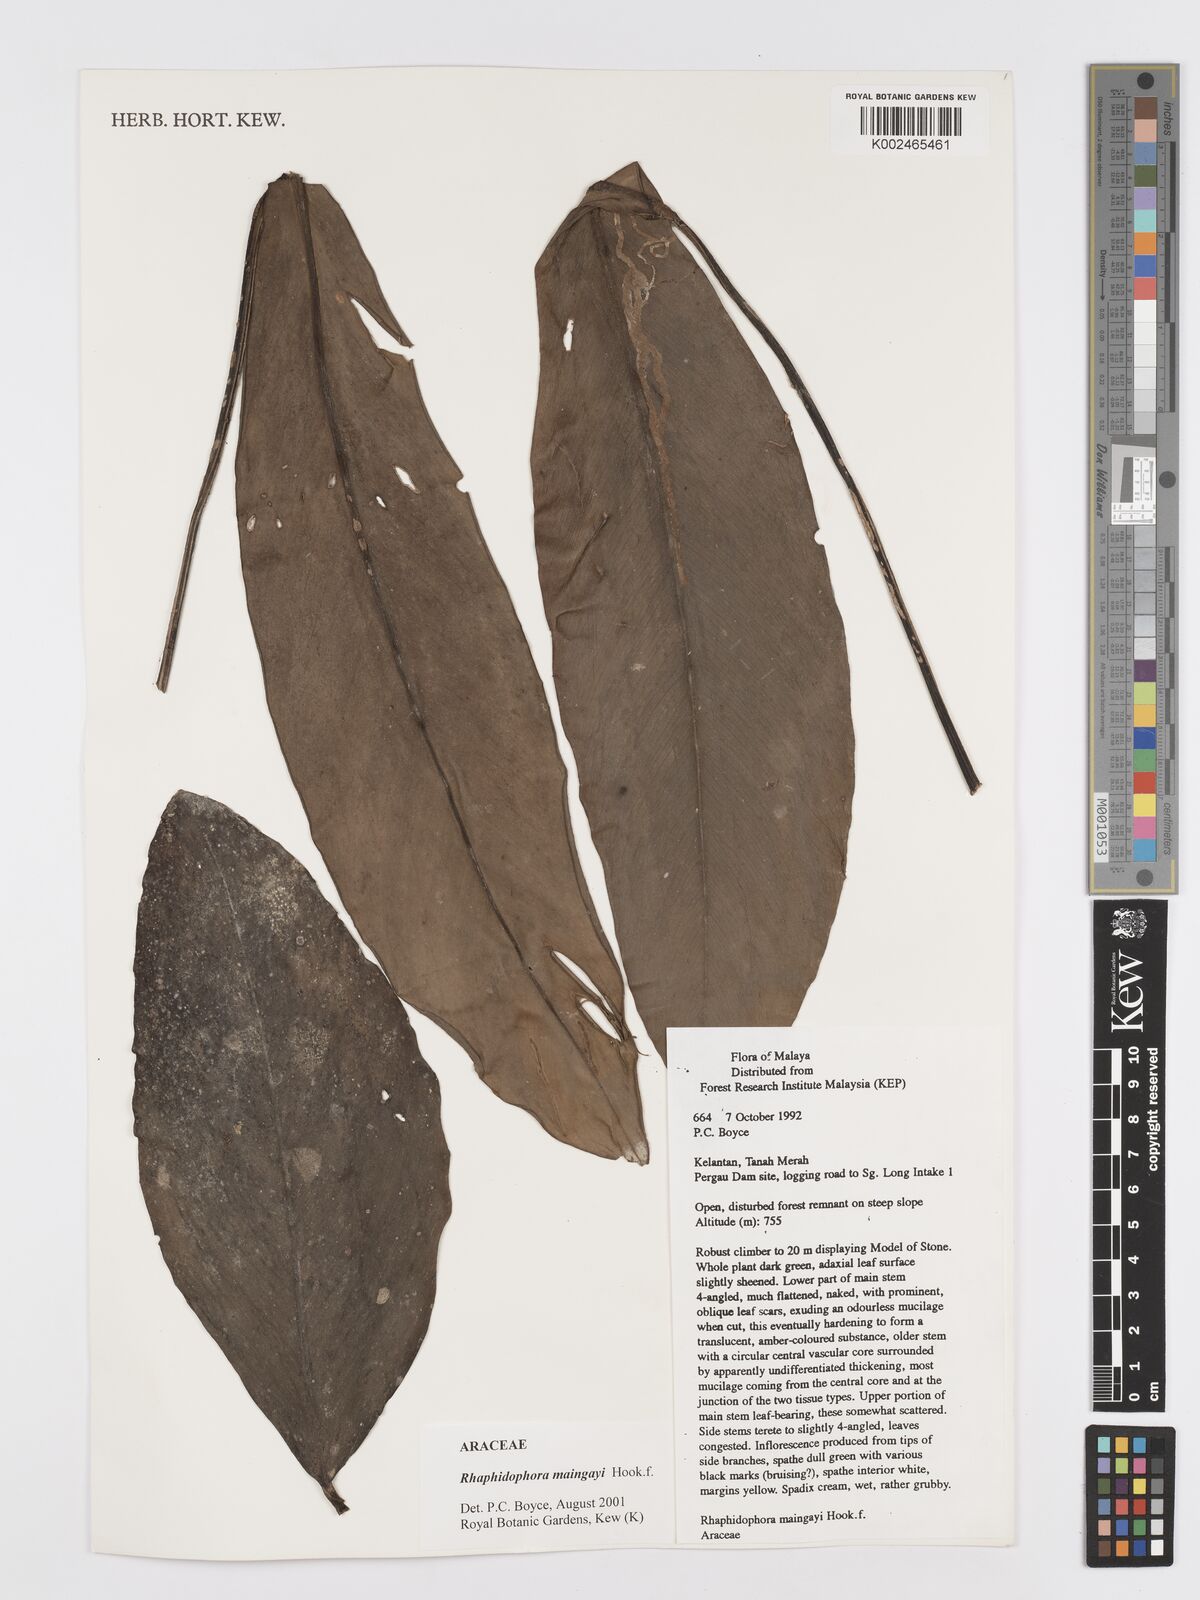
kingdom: Plantae
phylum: Tracheophyta
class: Liliopsida
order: Alismatales
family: Araceae
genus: Rhaphidophora
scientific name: Rhaphidophora maingayi
